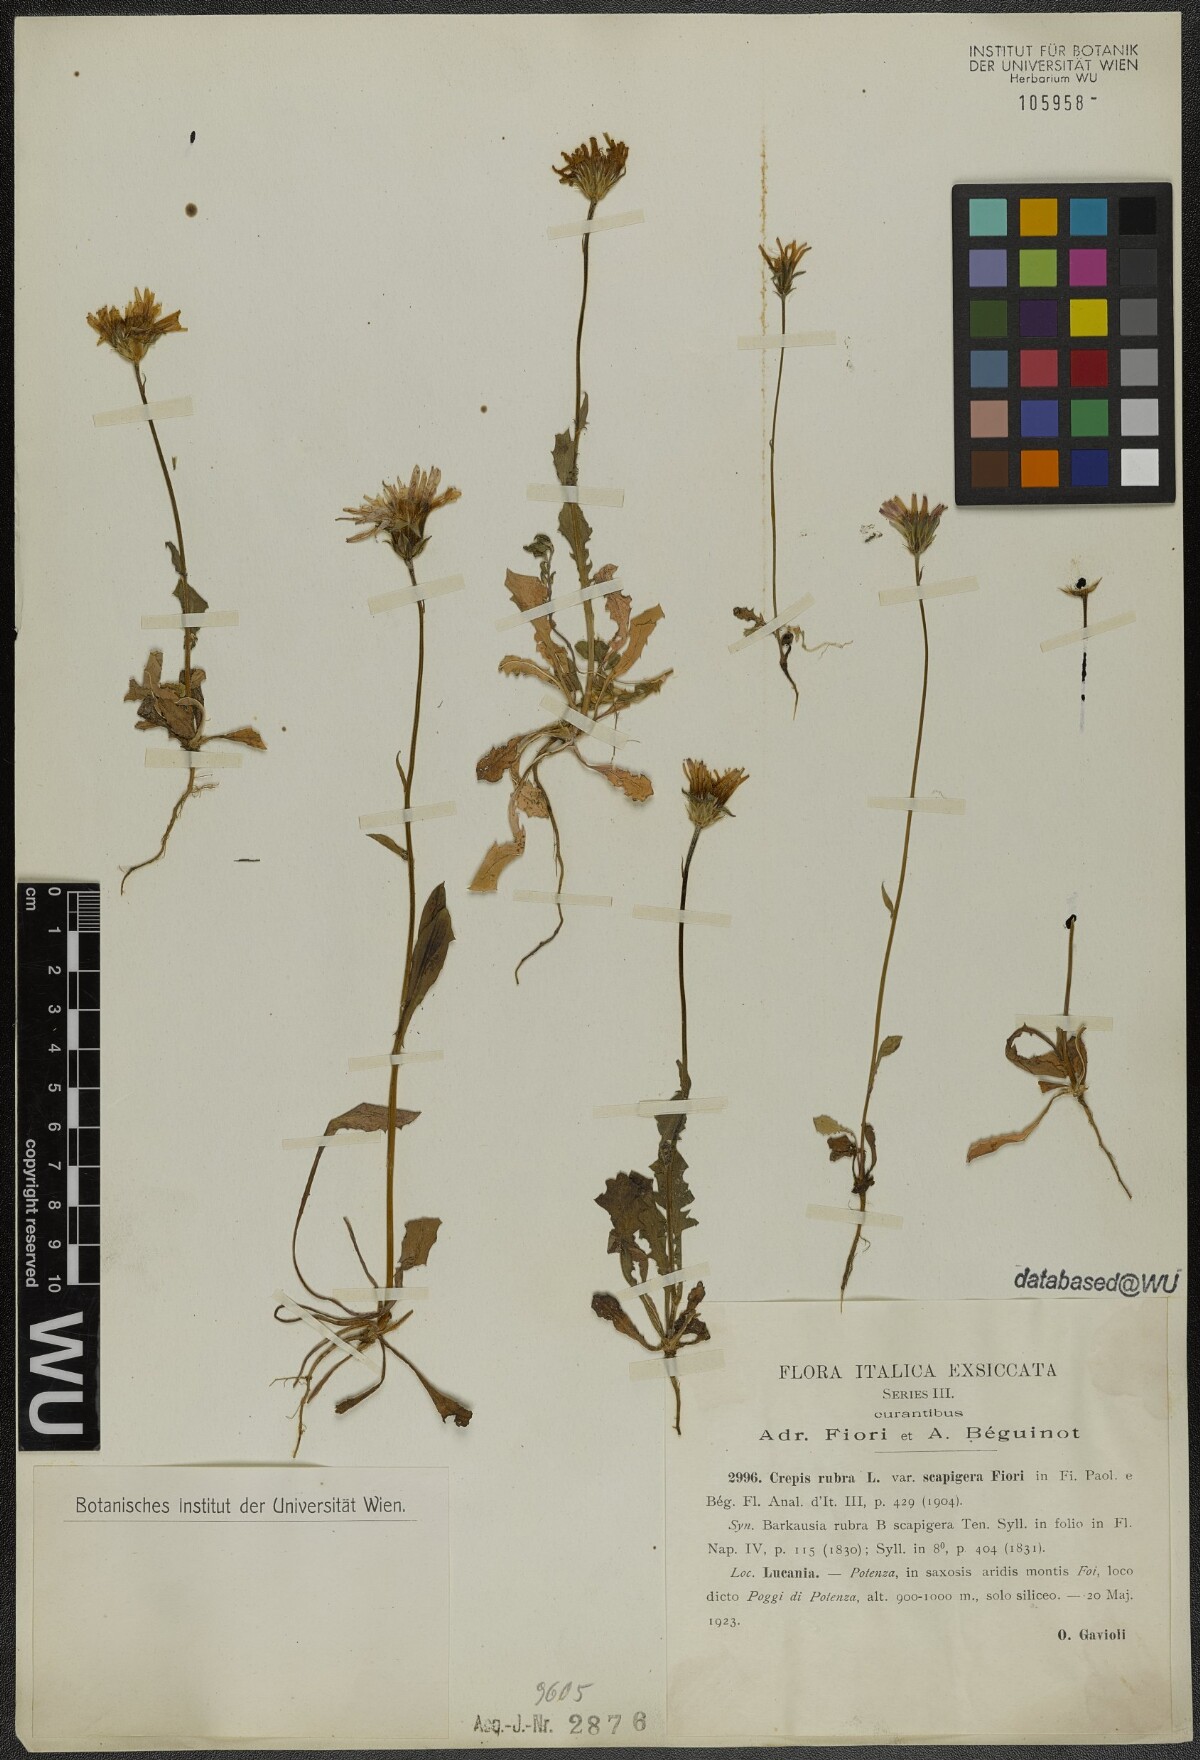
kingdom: Plantae
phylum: Tracheophyta
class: Magnoliopsida
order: Asterales
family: Asteraceae
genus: Crepis
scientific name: Crepis rubra
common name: Pink hawk's-beard
